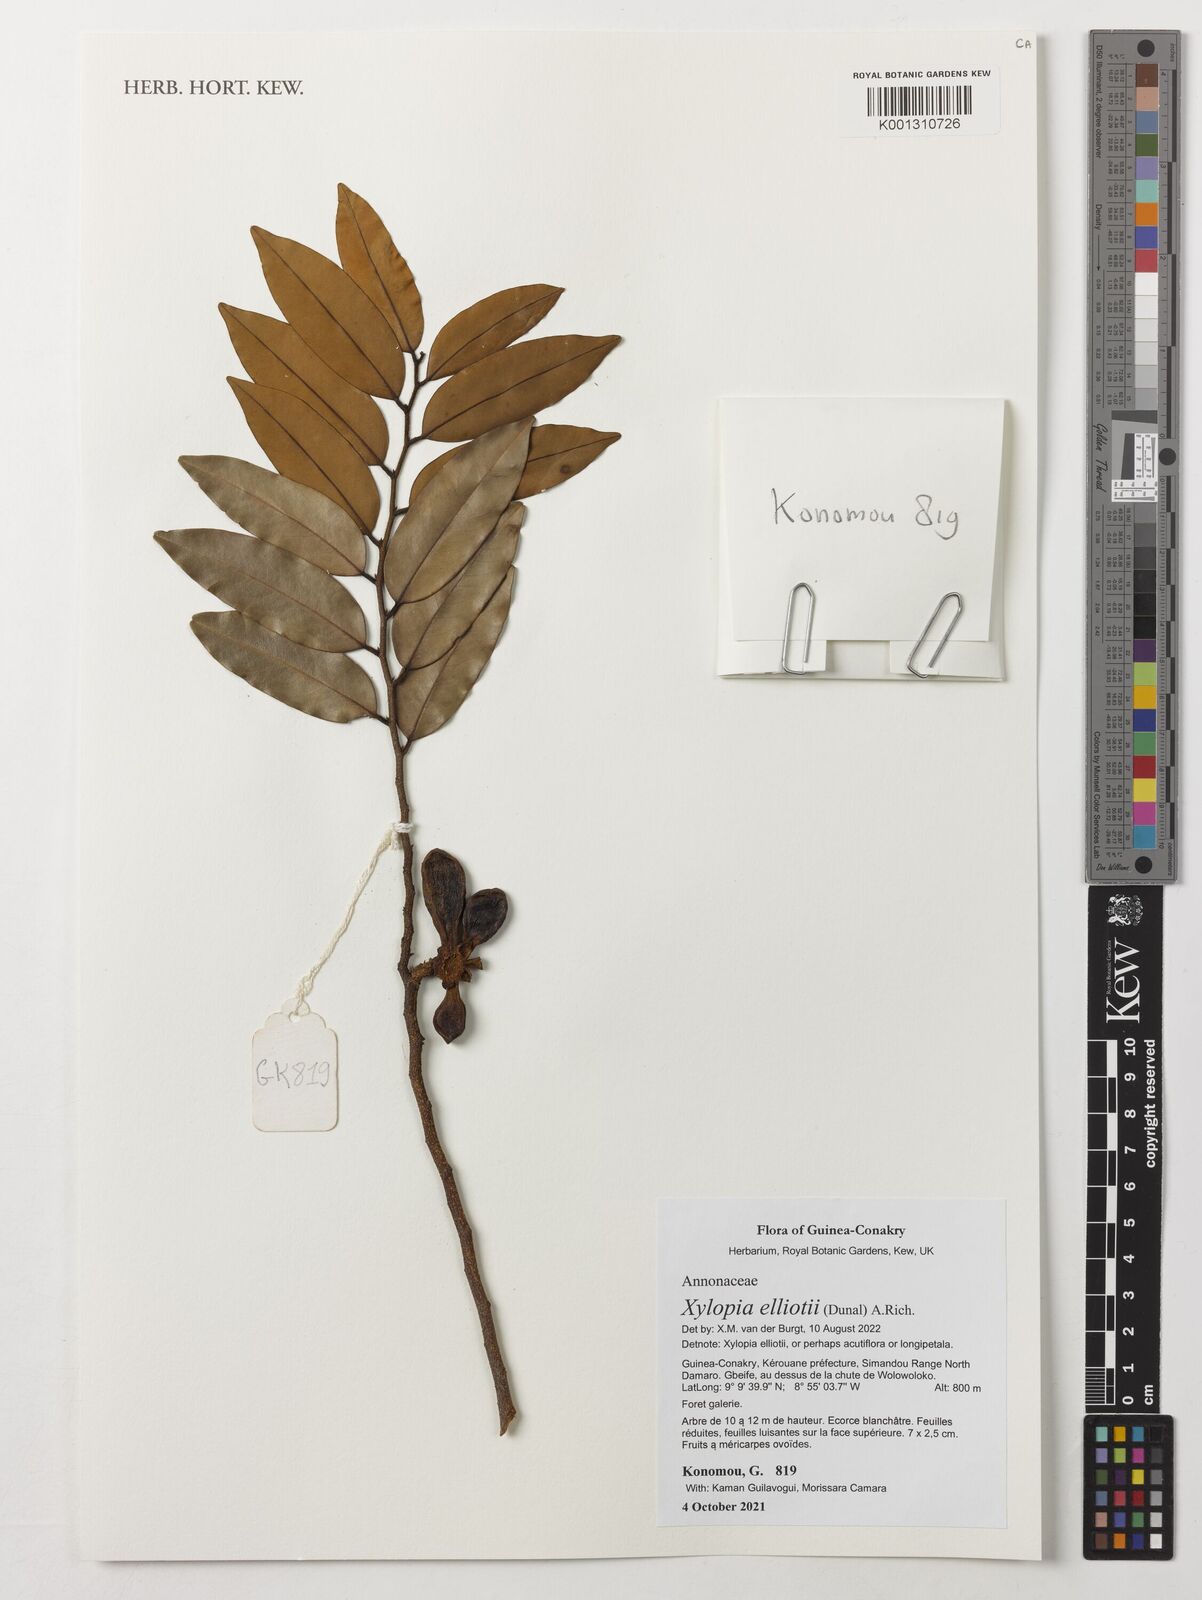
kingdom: Plantae
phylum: Tracheophyta
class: Magnoliopsida
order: Magnoliales
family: Annonaceae
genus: Xylopia
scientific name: Xylopia elliotii
